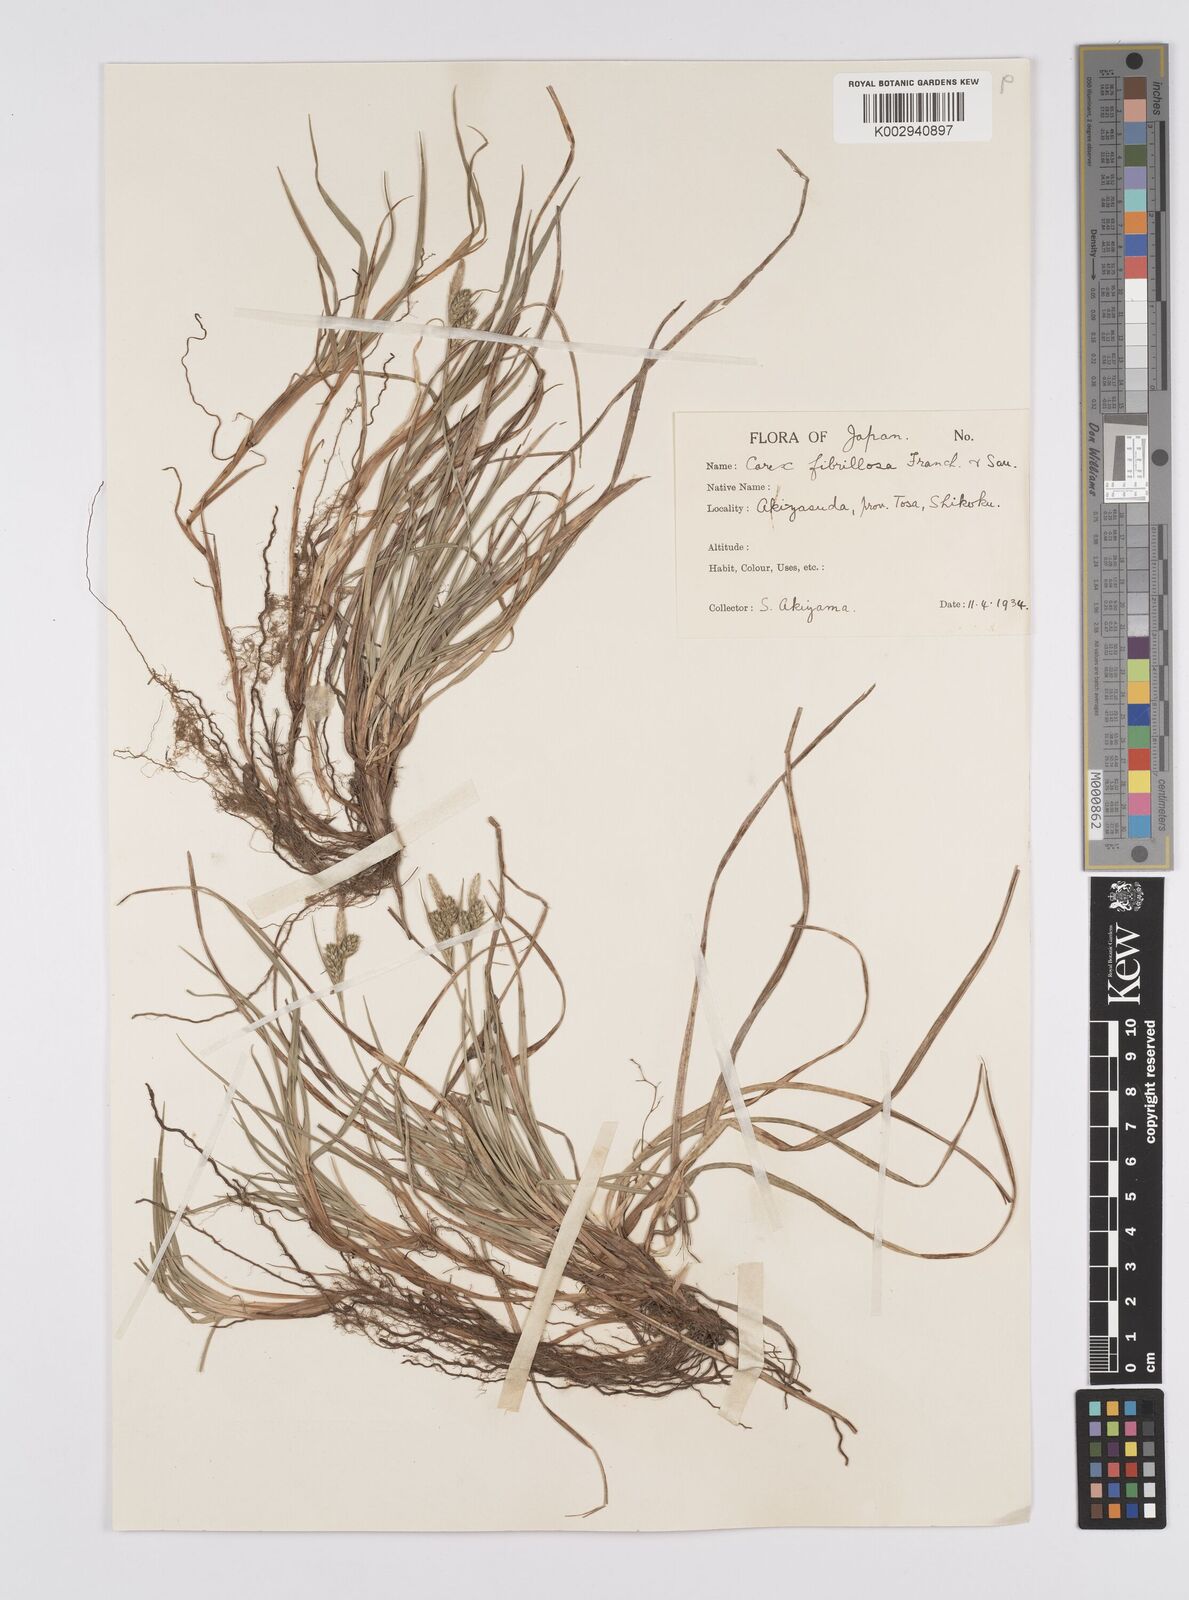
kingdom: Plantae
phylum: Tracheophyta
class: Liliopsida
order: Poales
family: Cyperaceae
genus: Carex
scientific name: Carex breviculmis
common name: Asian shortstem sedge
